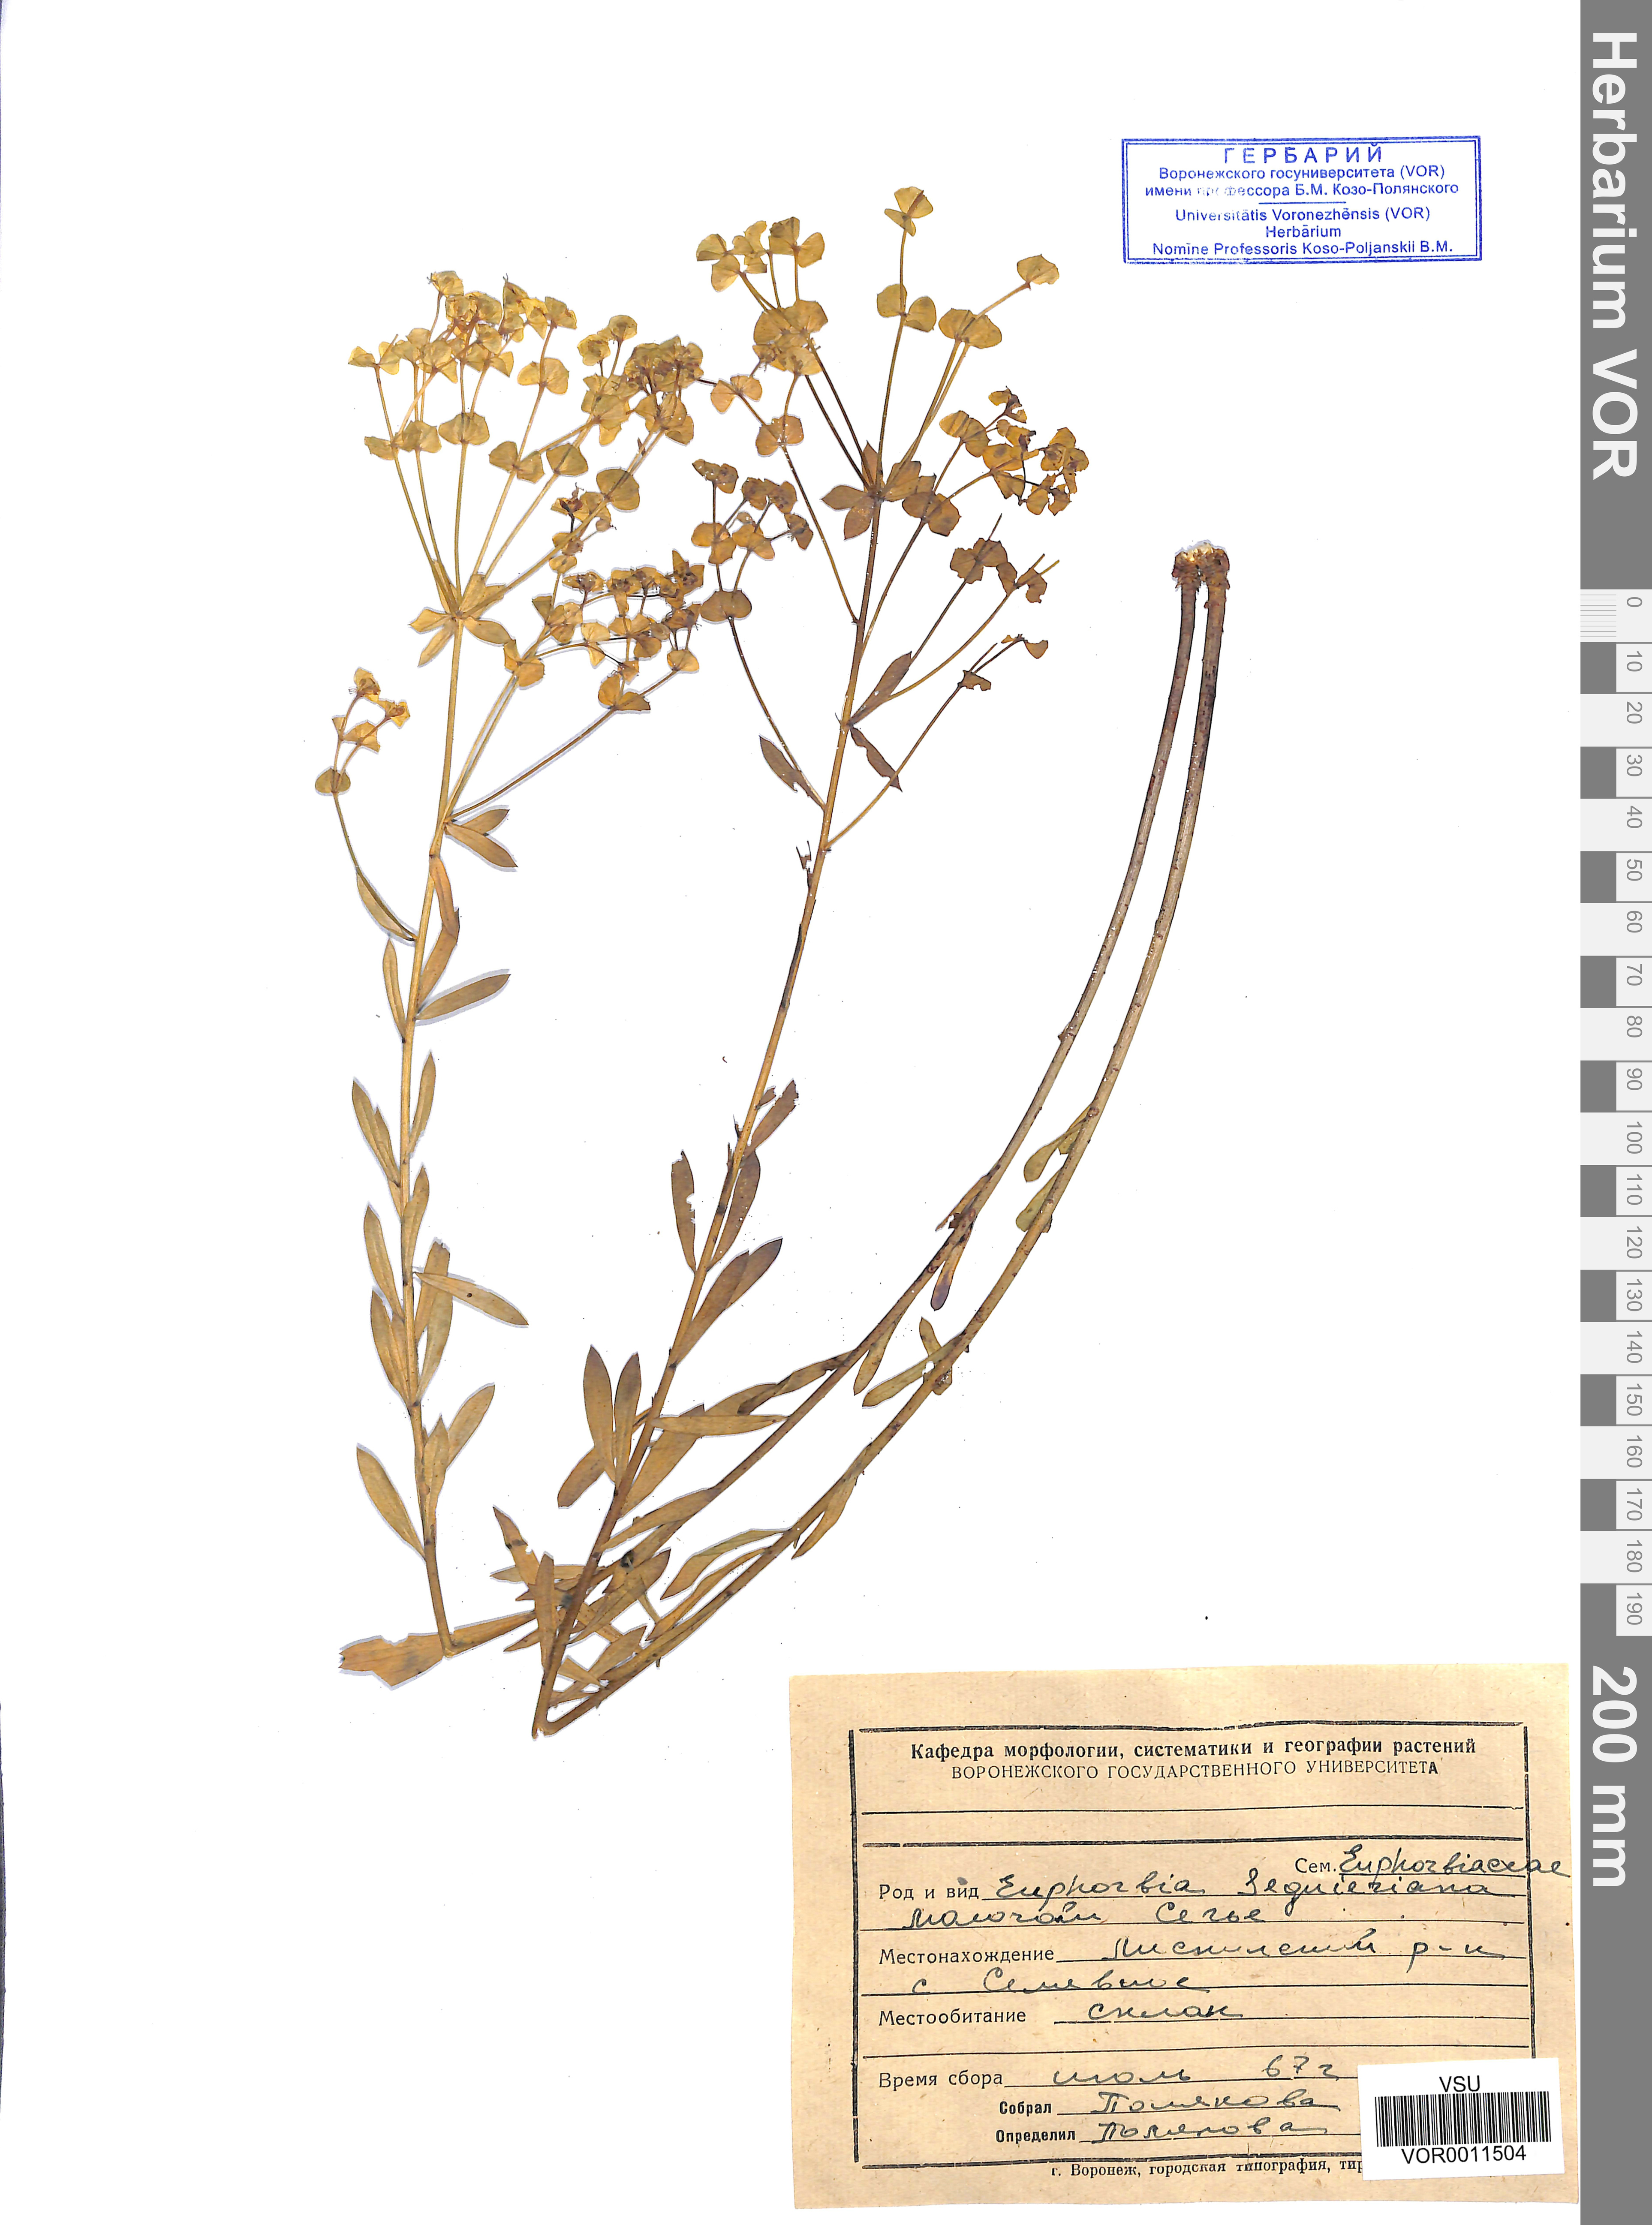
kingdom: Plantae
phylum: Tracheophyta
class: Magnoliopsida
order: Malpighiales
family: Euphorbiaceae
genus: Euphorbia
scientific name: Euphorbia seguieriana
